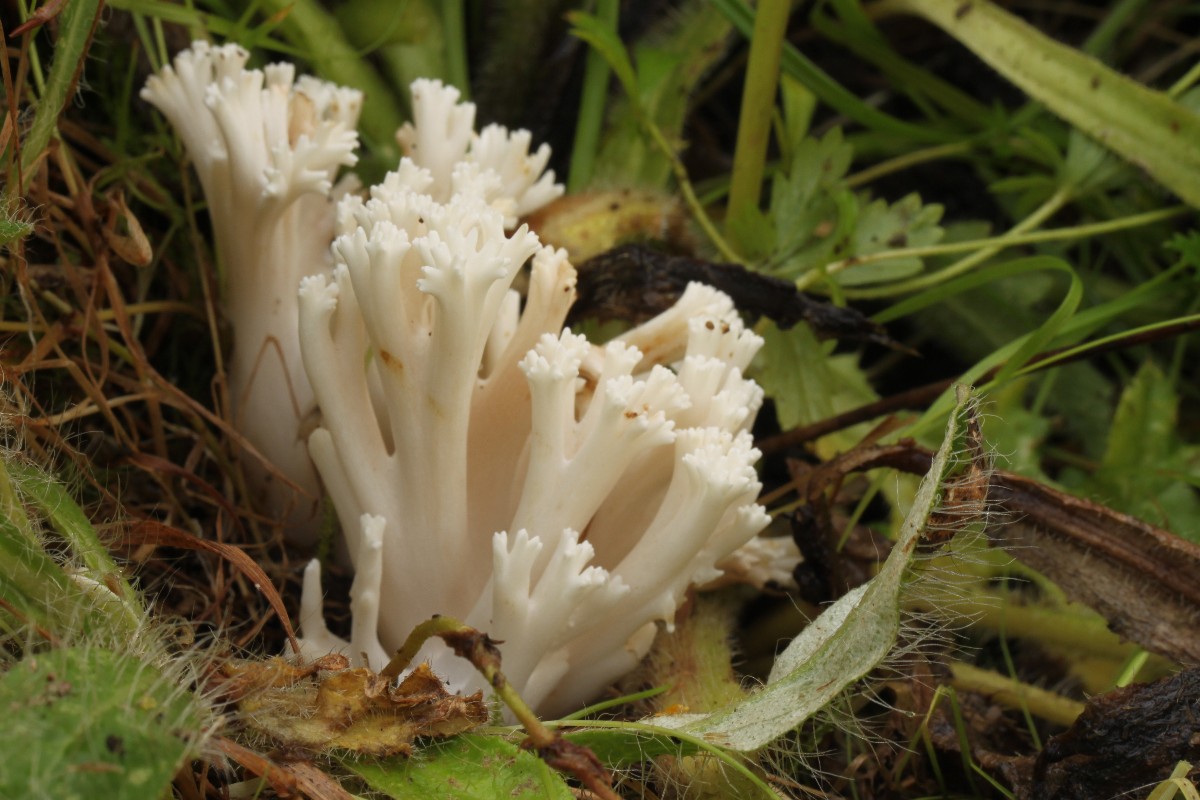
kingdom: Fungi
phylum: Basidiomycota
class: Agaricomycetes
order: Agaricales
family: Clavariaceae
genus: Ramariopsis
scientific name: Ramariopsis robusta
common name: tykgrenet køllesvamp
